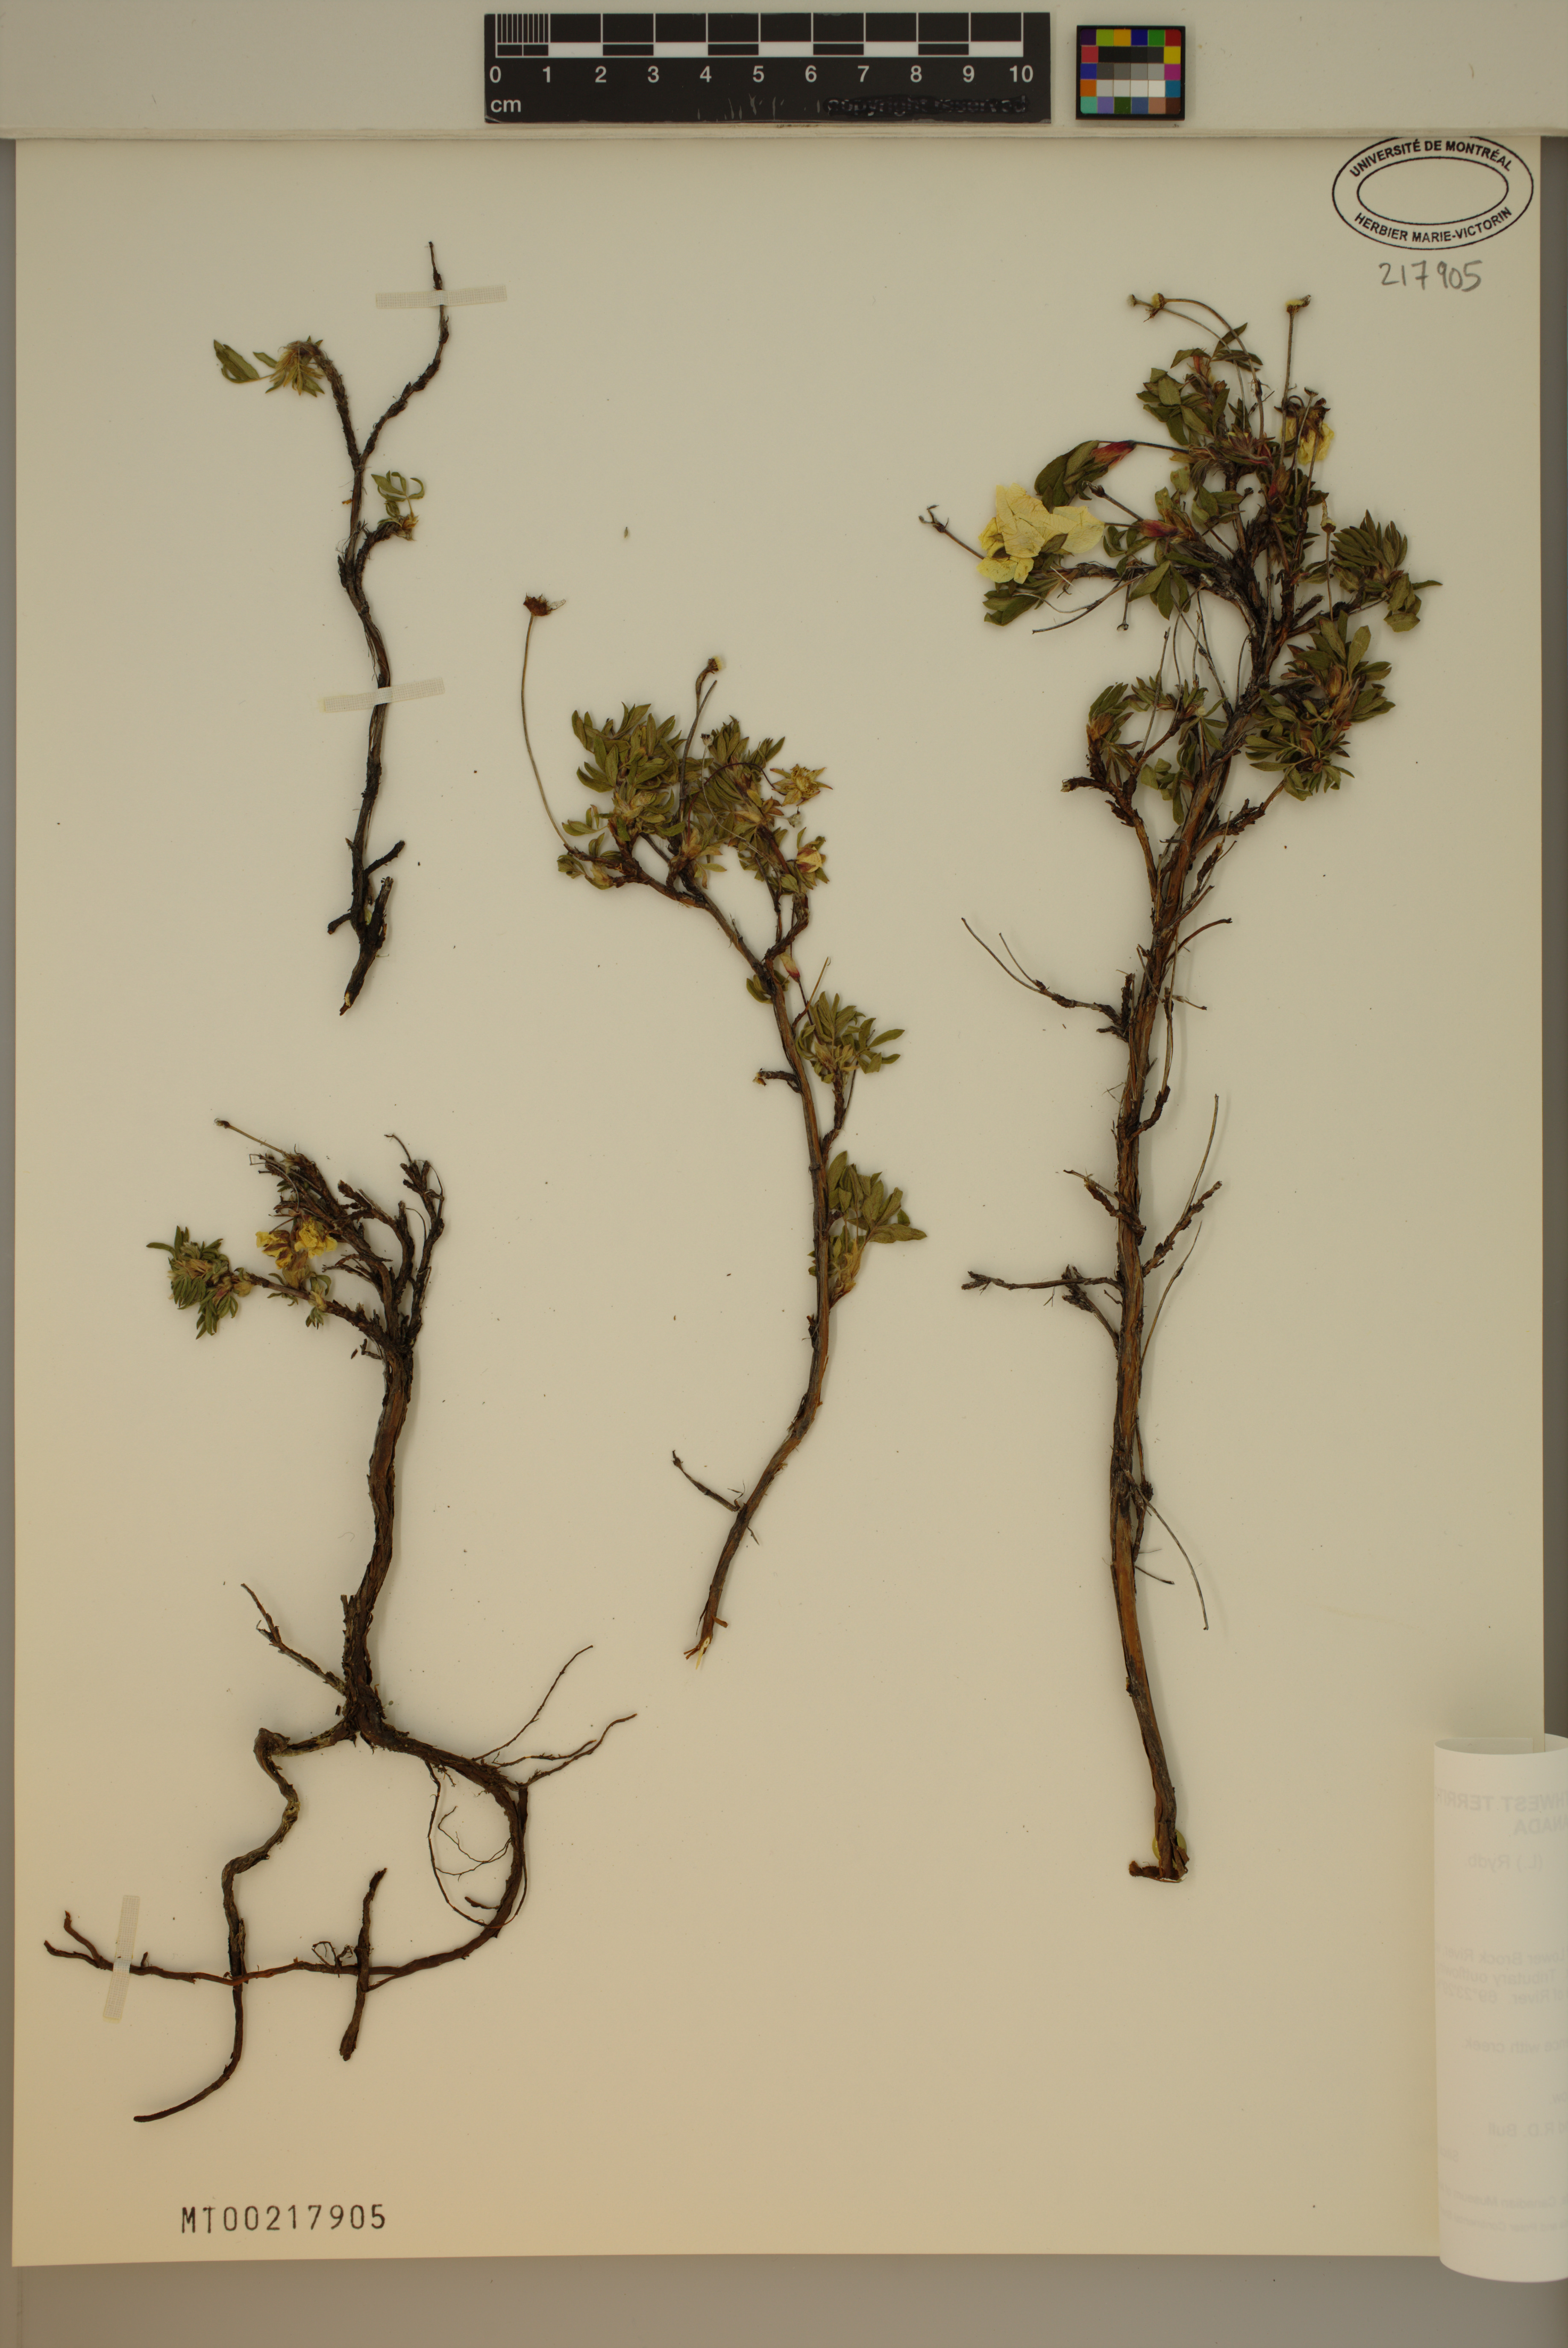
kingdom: Plantae
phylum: Tracheophyta
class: Magnoliopsida
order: Rosales
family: Rosaceae
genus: Dasiphora
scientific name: Dasiphora fruticosa
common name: Shrubby cinquefoil
